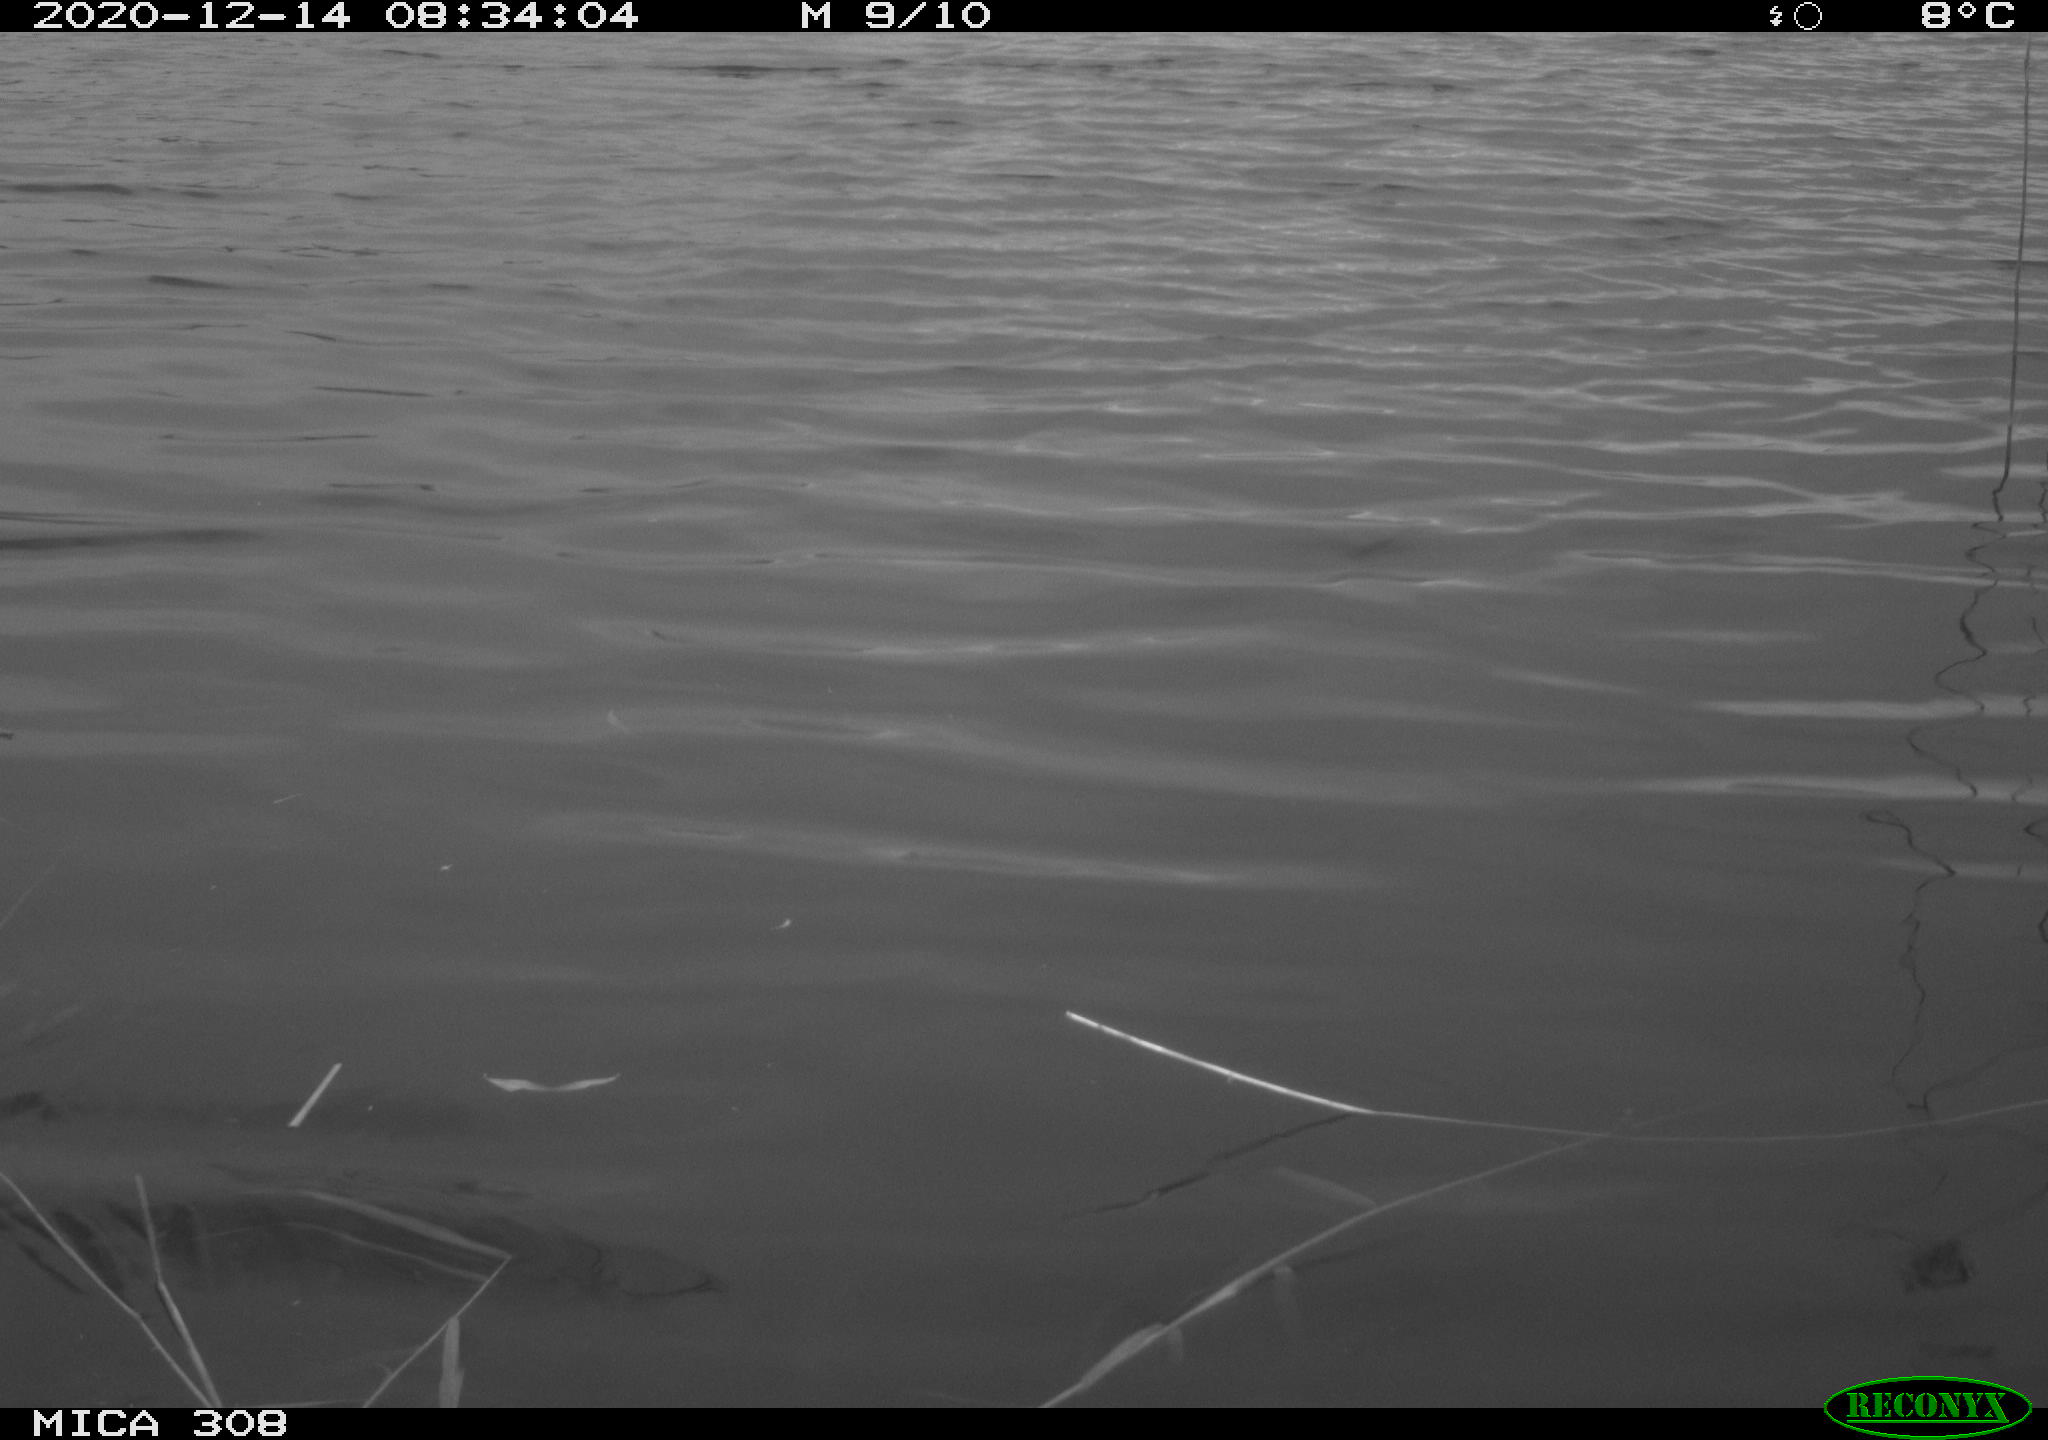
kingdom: Animalia
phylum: Chordata
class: Aves
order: Gruiformes
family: Rallidae
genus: Gallinula
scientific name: Gallinula chloropus
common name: Common moorhen
